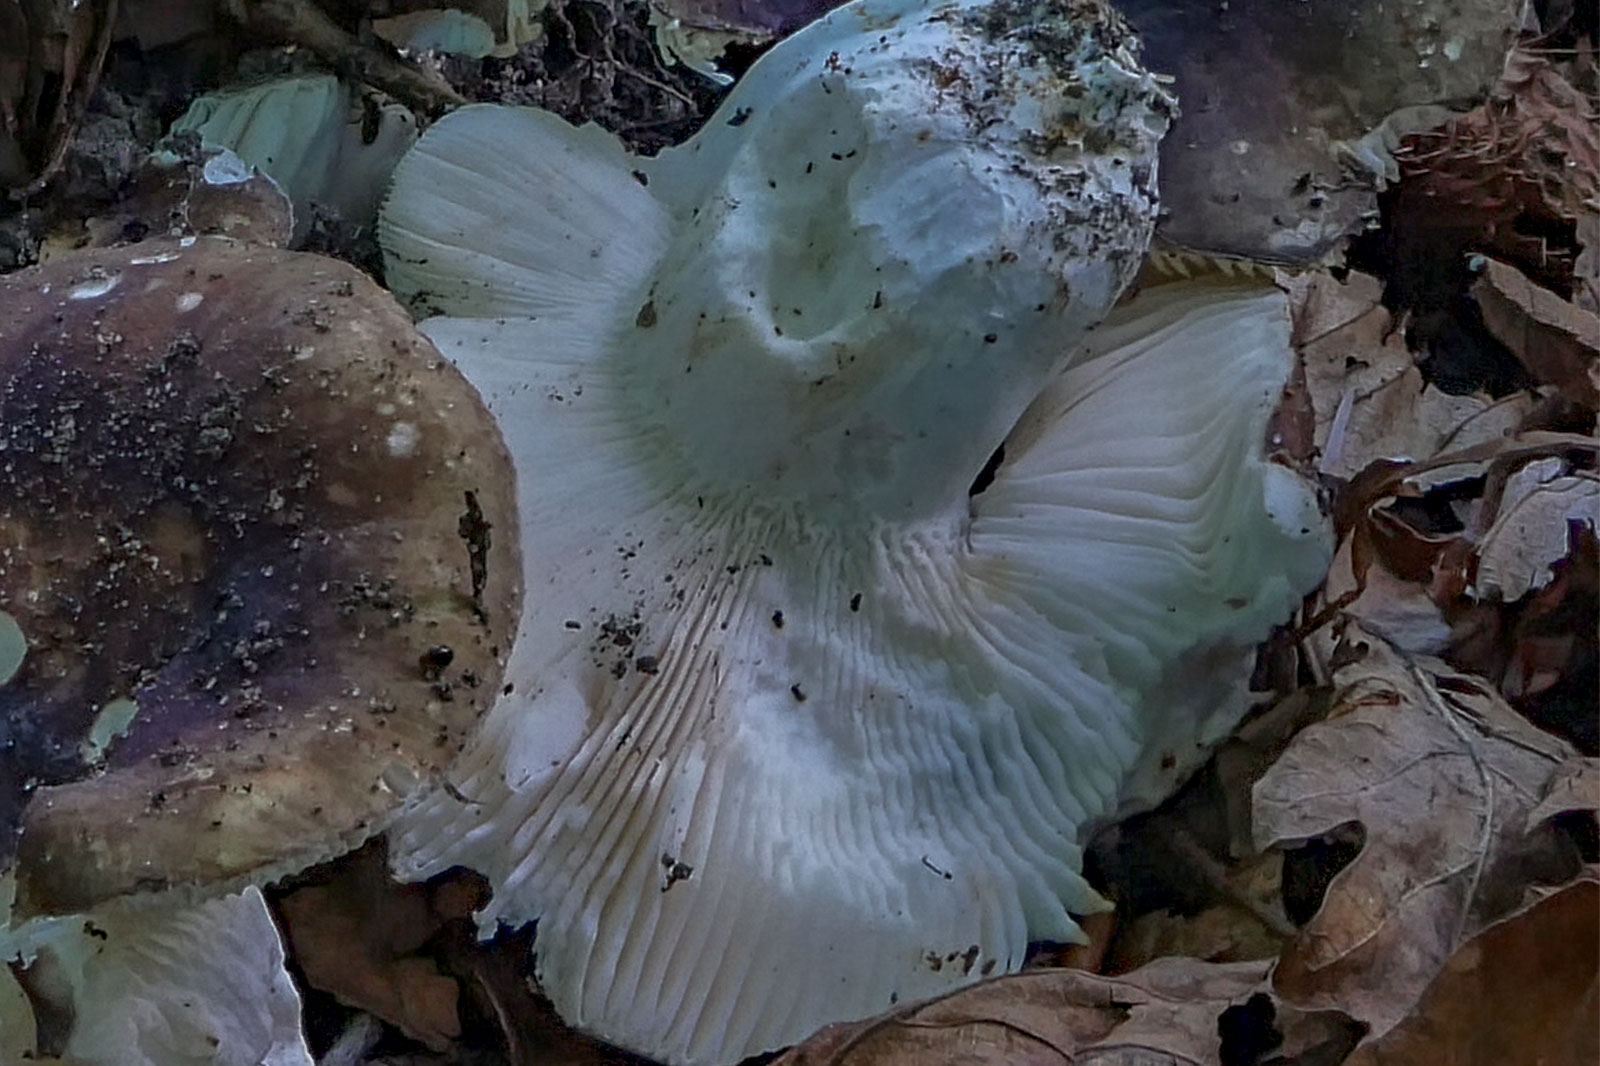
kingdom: Fungi
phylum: Basidiomycota
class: Agaricomycetes
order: Russulales
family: Russulaceae
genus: Russula
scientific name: Russula heterophylla
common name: gaffelbladet skørhat
